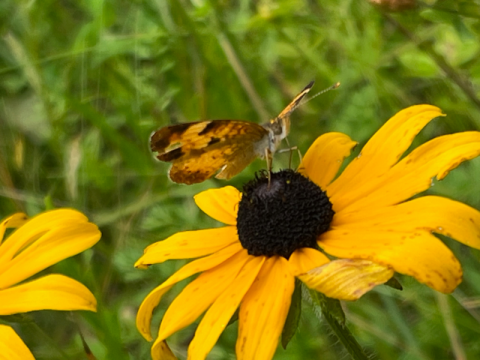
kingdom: Animalia
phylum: Arthropoda
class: Insecta
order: Lepidoptera
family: Nymphalidae
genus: Phyciodes
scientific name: Phyciodes tharos
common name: Northern Crescent
